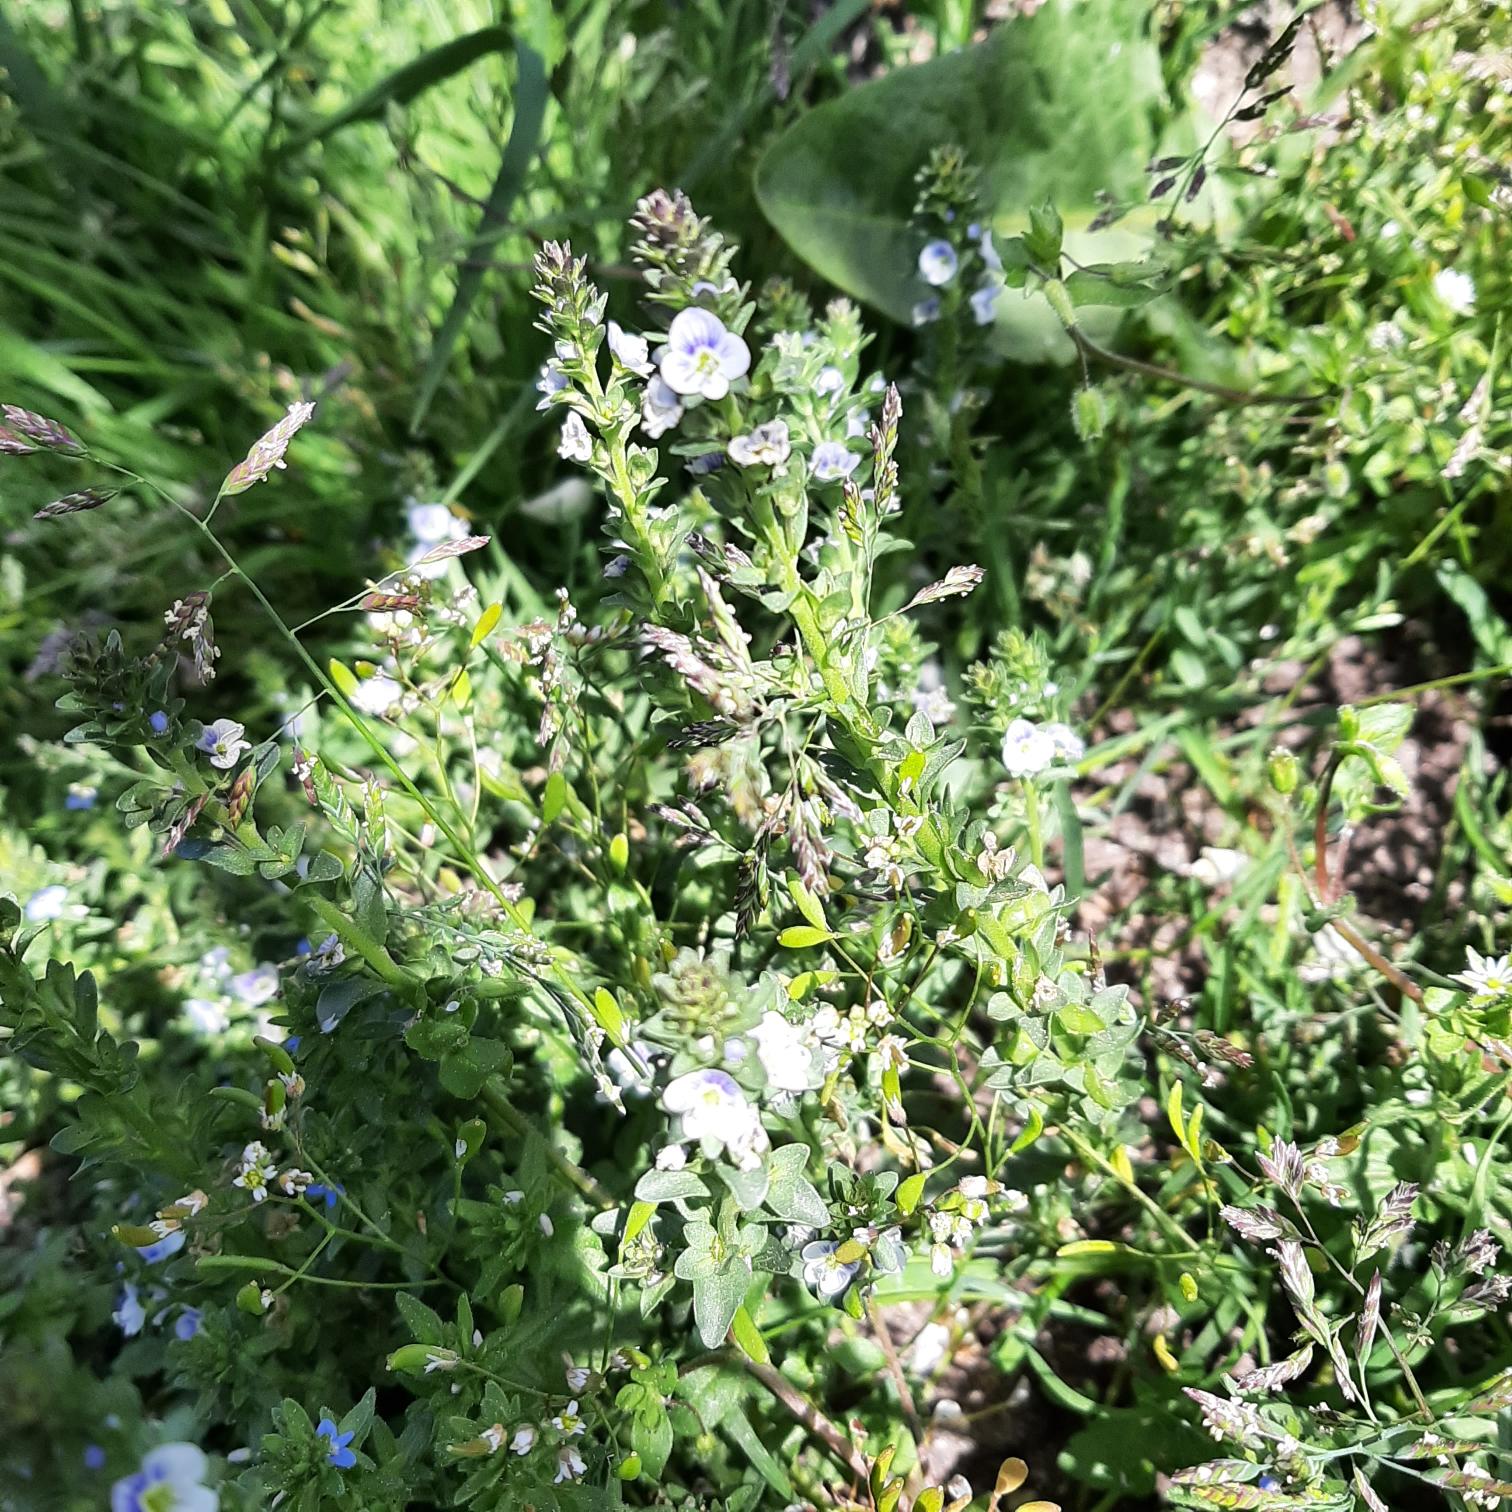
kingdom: Plantae
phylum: Tracheophyta
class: Magnoliopsida
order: Lamiales
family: Plantaginaceae
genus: Veronica
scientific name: Veronica serpyllifolia
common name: Glat ærenpris
